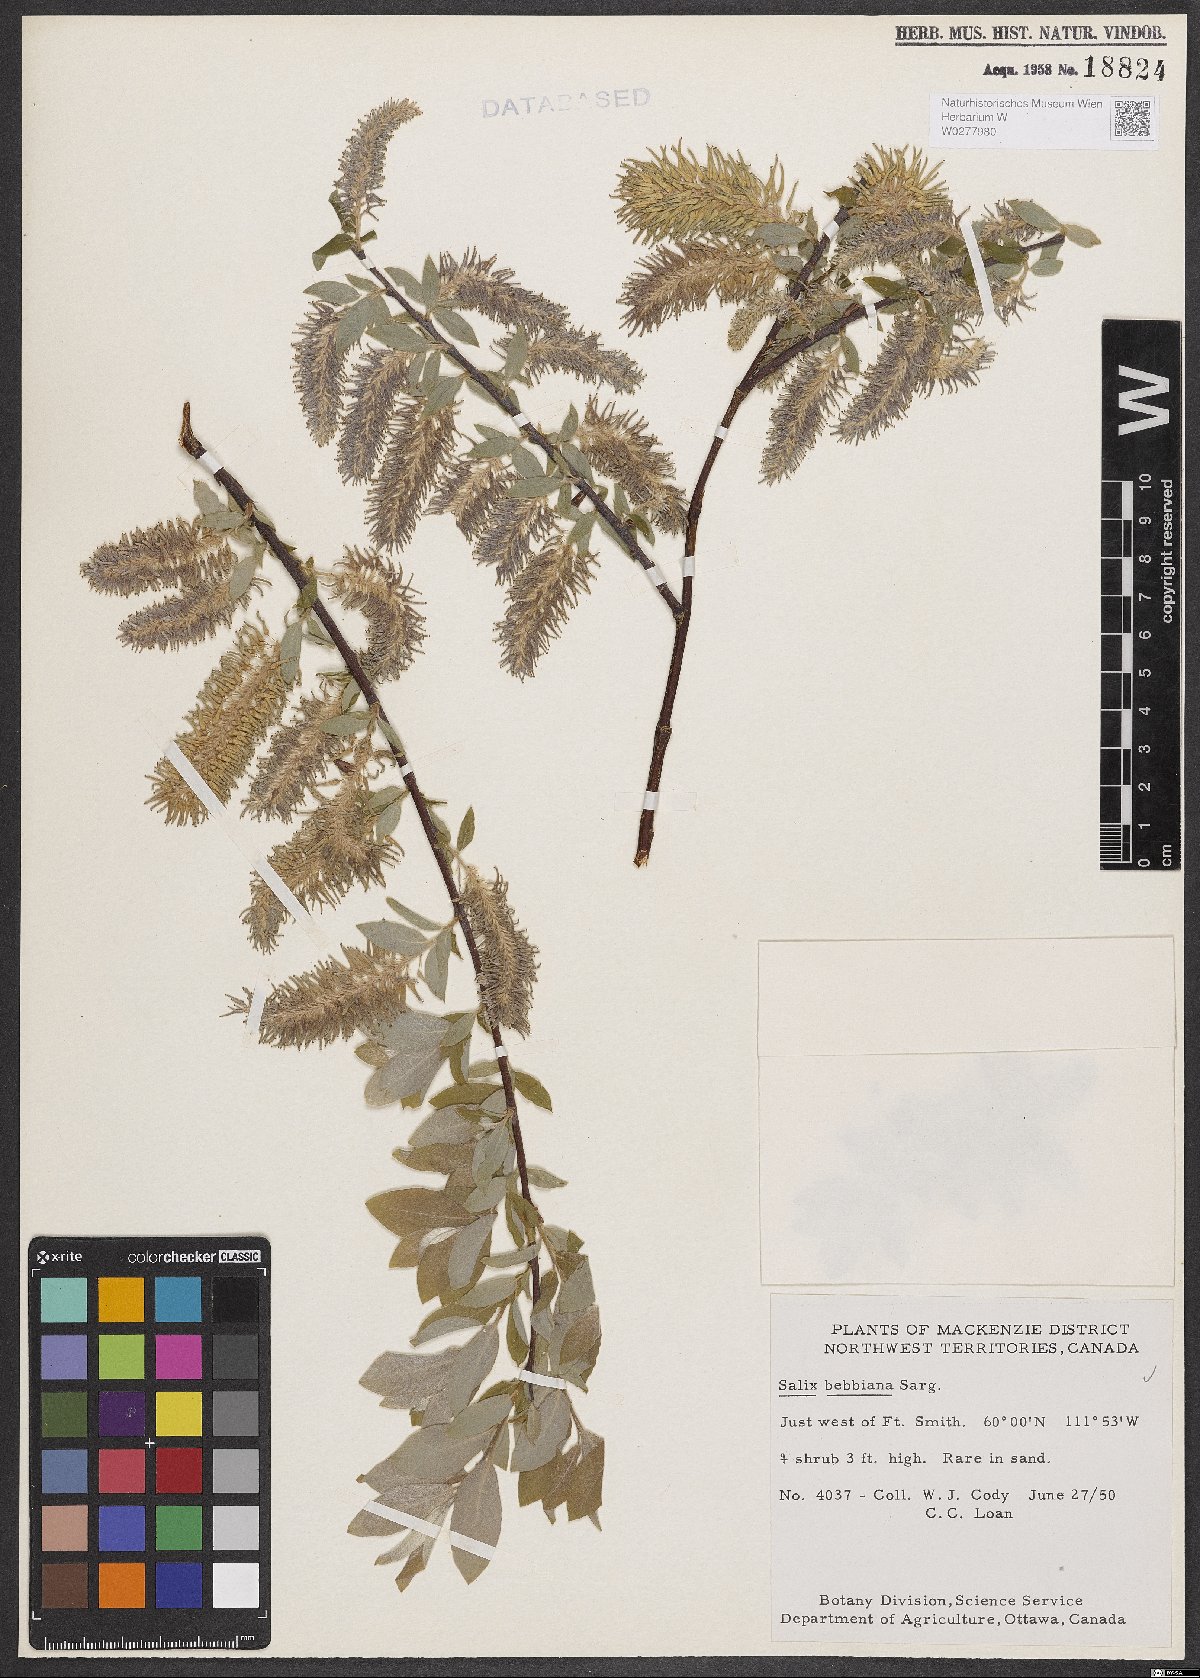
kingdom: Plantae
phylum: Tracheophyta
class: Magnoliopsida
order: Malpighiales
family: Salicaceae
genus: Salix
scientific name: Salix bebbiana
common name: Bebb's willow
